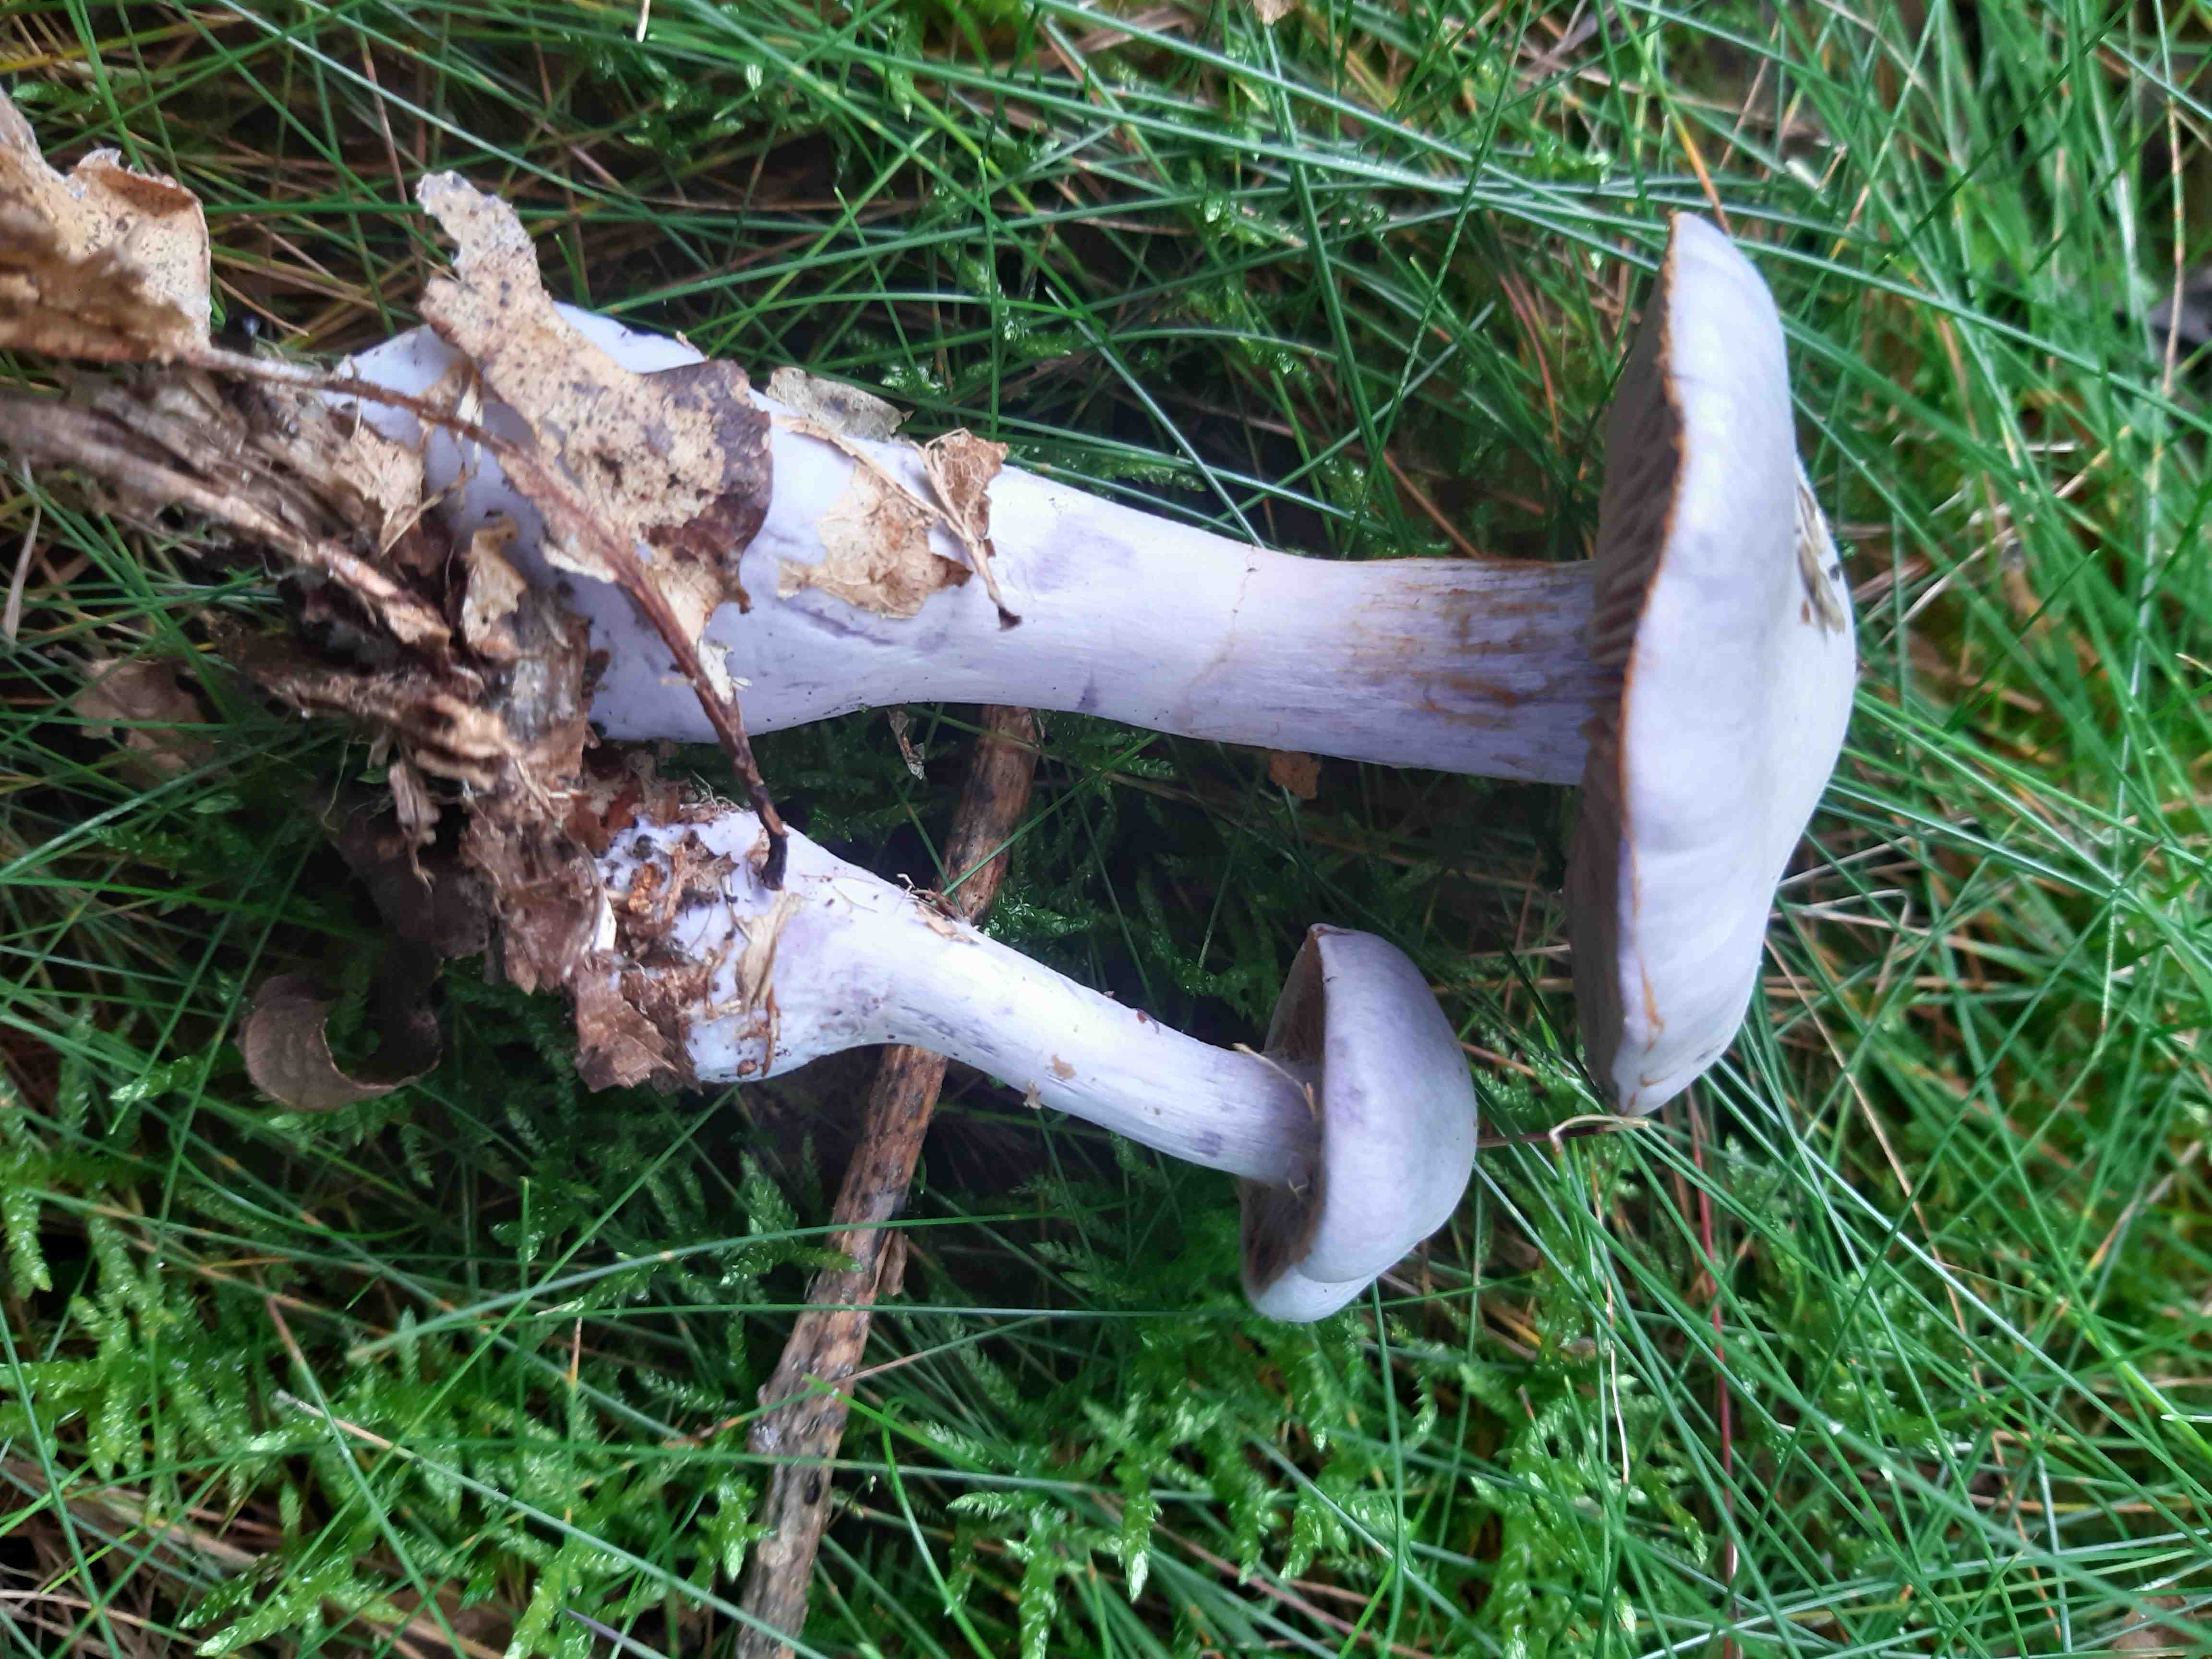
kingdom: Fungi
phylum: Basidiomycota
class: Agaricomycetes
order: Agaricales
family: Cortinariaceae
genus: Cortinarius
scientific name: Cortinarius alboviolaceus
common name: lysviolet slørhat
